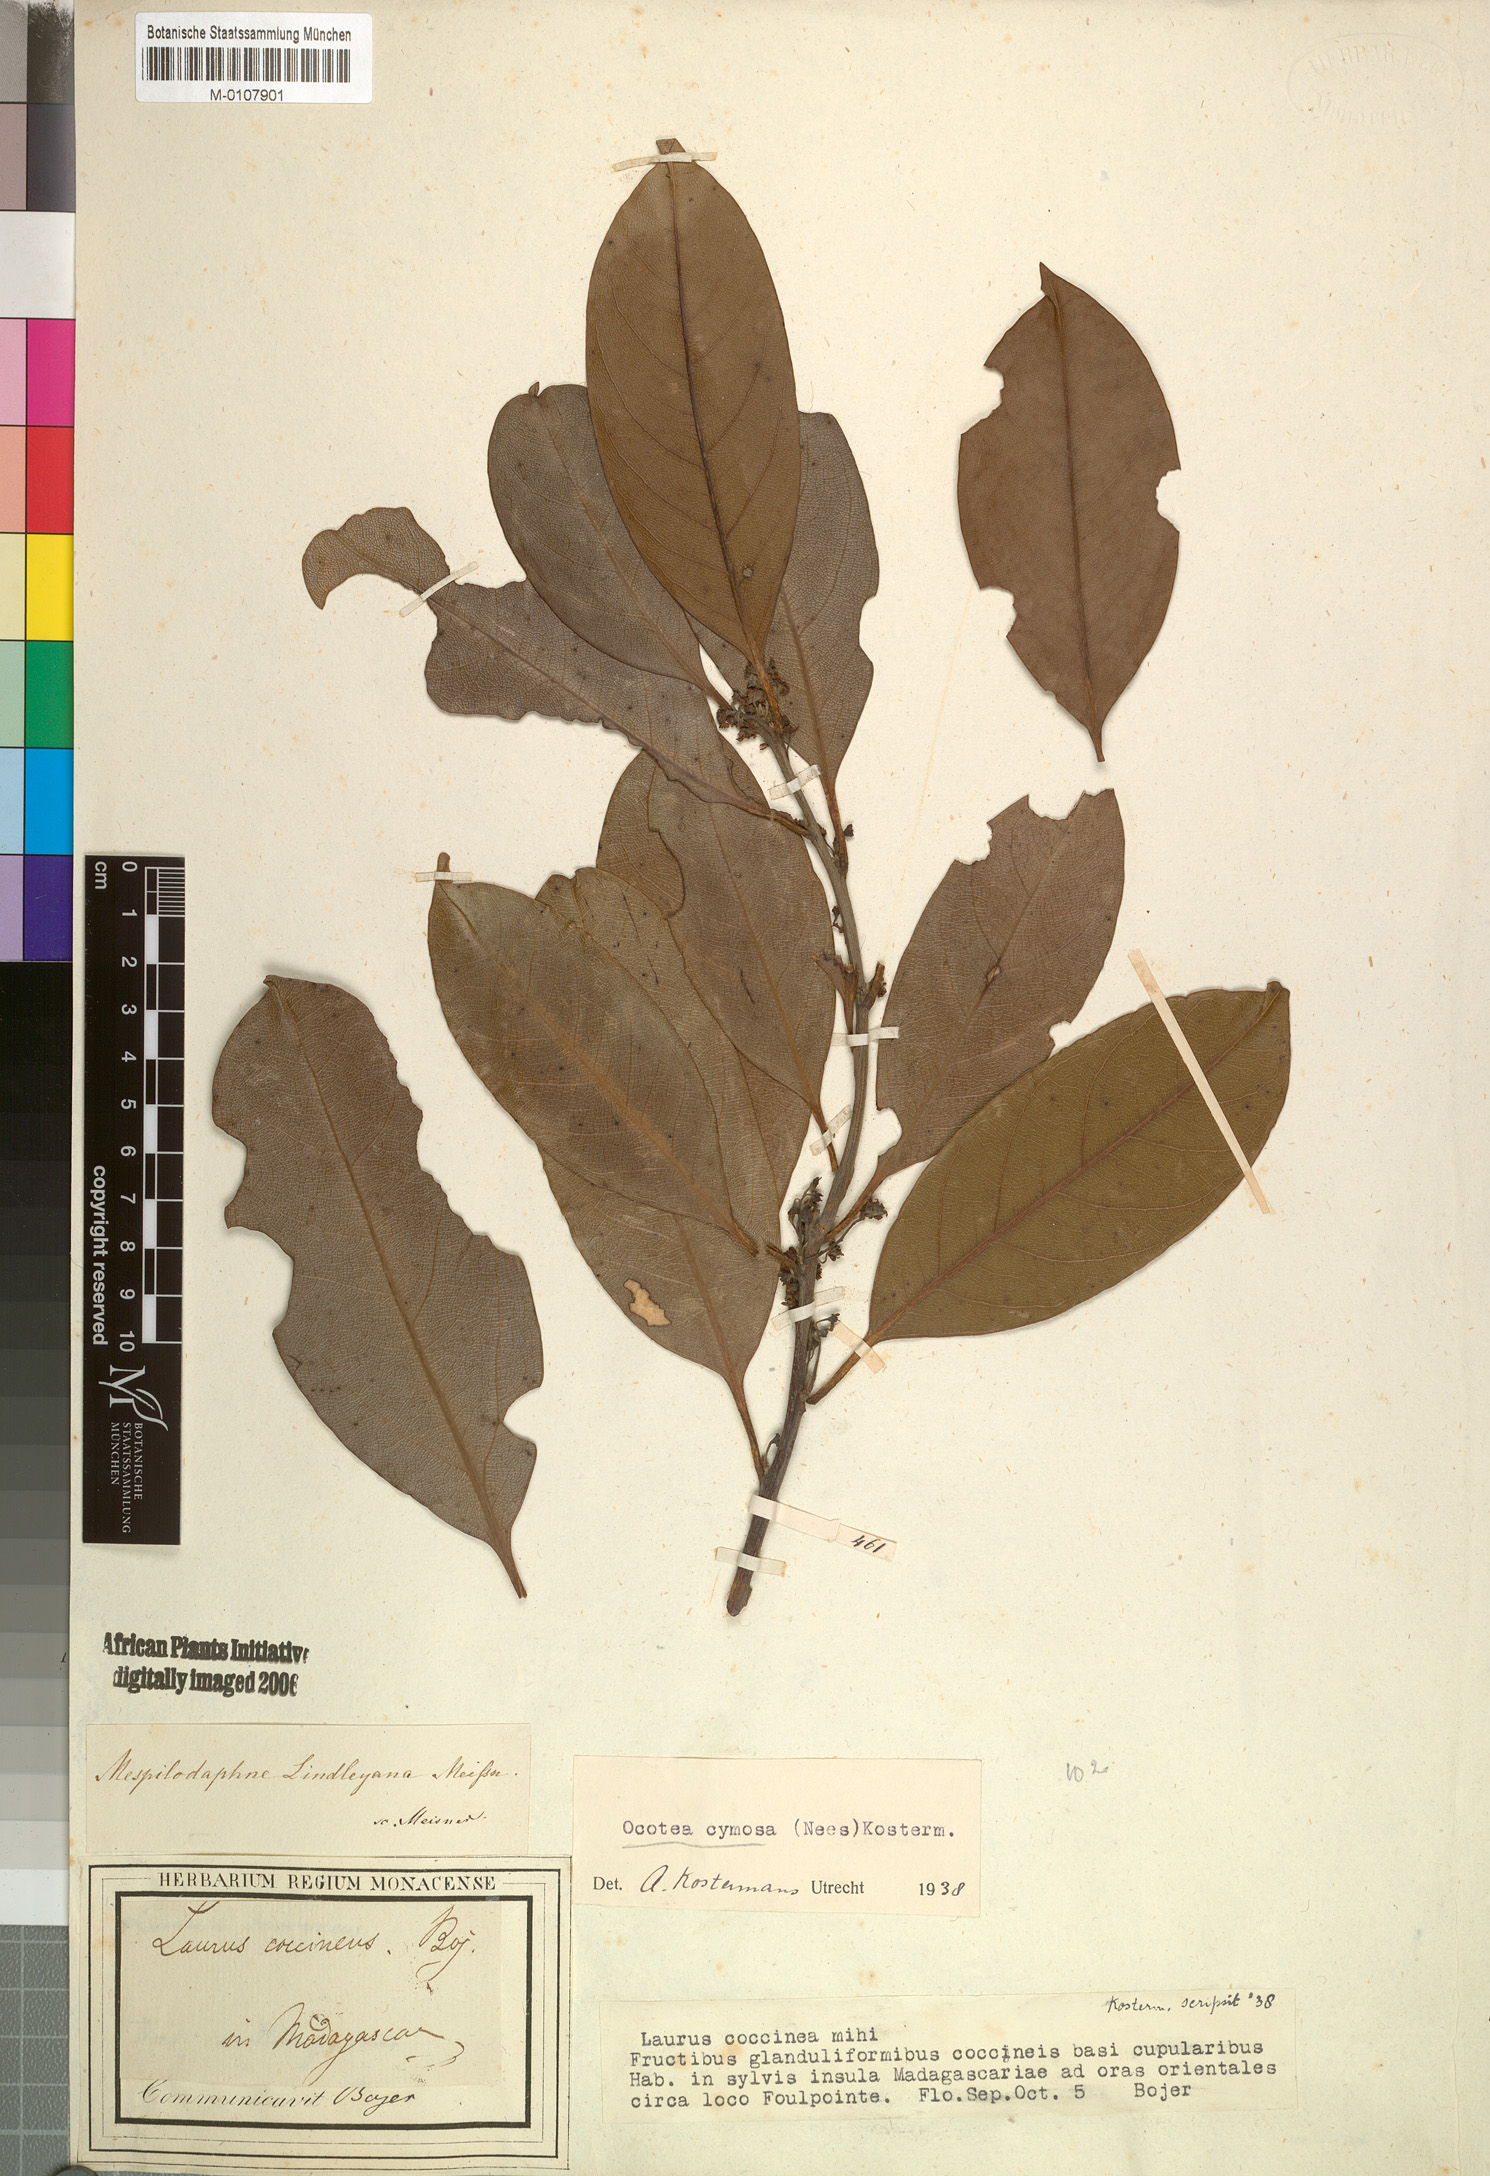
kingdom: Plantae
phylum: Tracheophyta
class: Magnoliopsida
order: Laurales
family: Lauraceae
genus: Mespilodaphne
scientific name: Mespilodaphne cymosa
